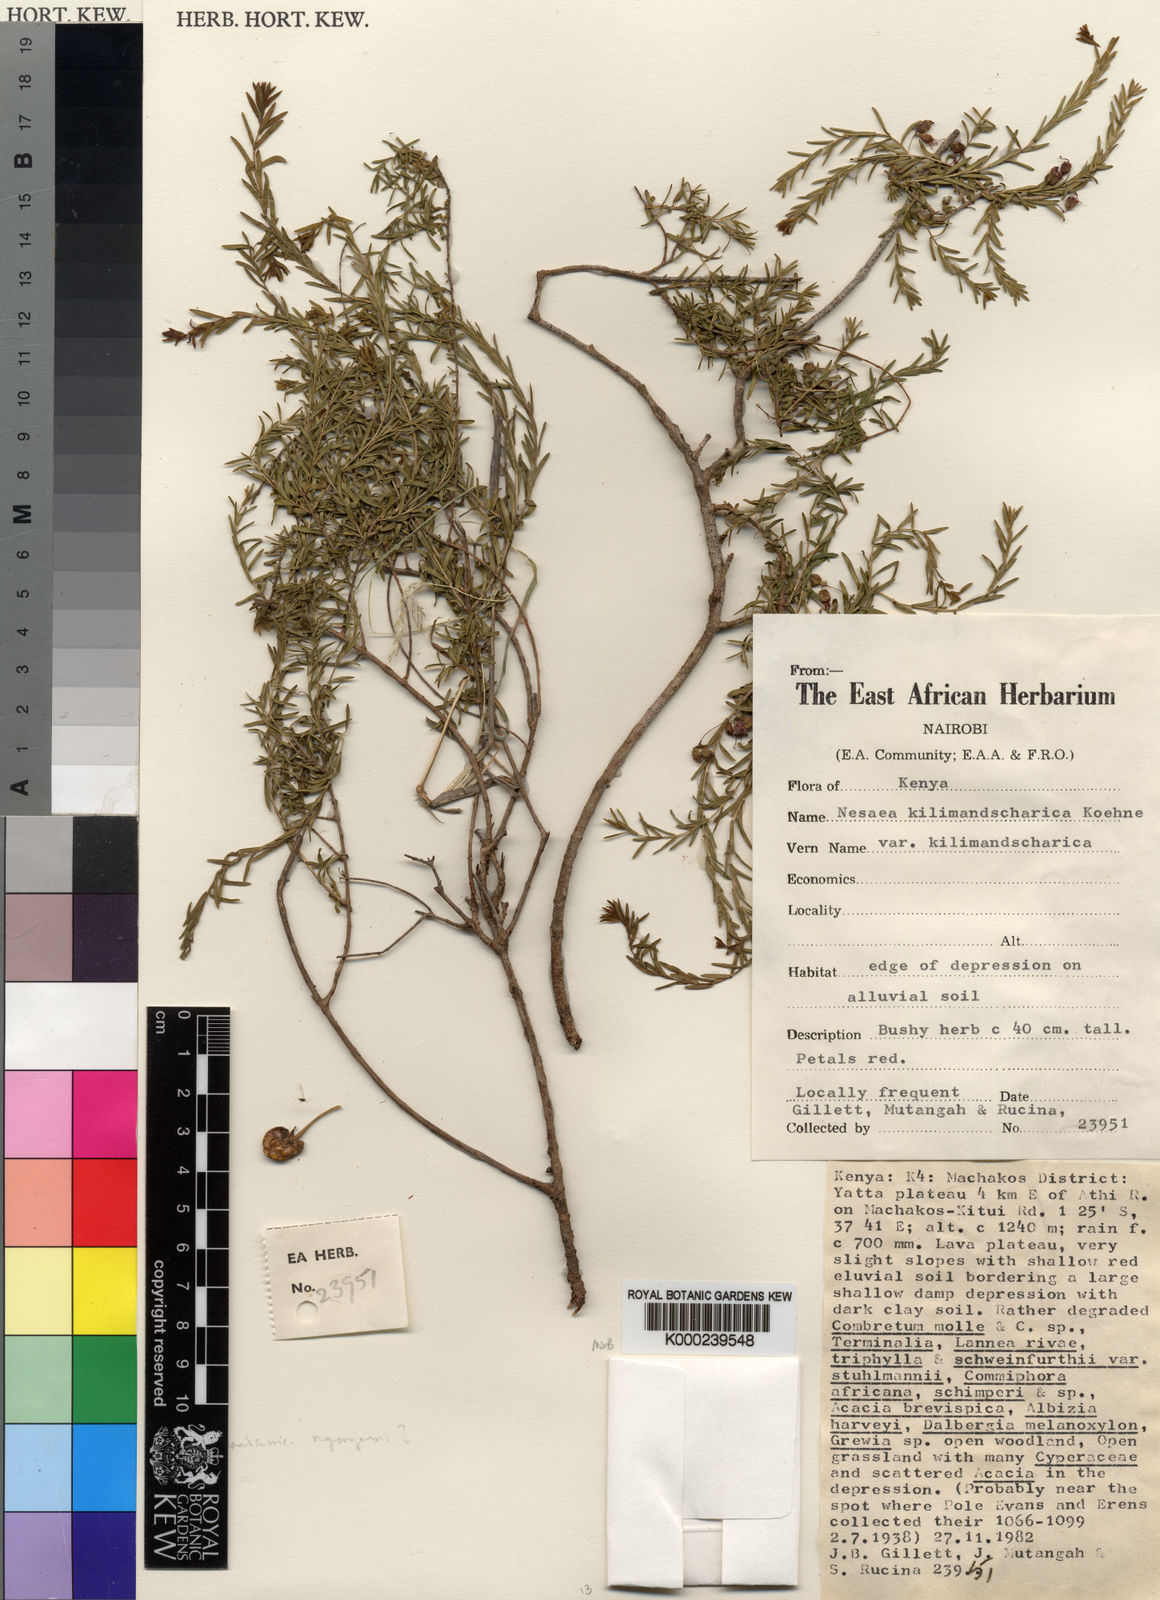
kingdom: Plantae
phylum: Tracheophyta
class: Magnoliopsida
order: Myrtales
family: Lythraceae
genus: Ammannia
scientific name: Ammannia kilimandscharica
